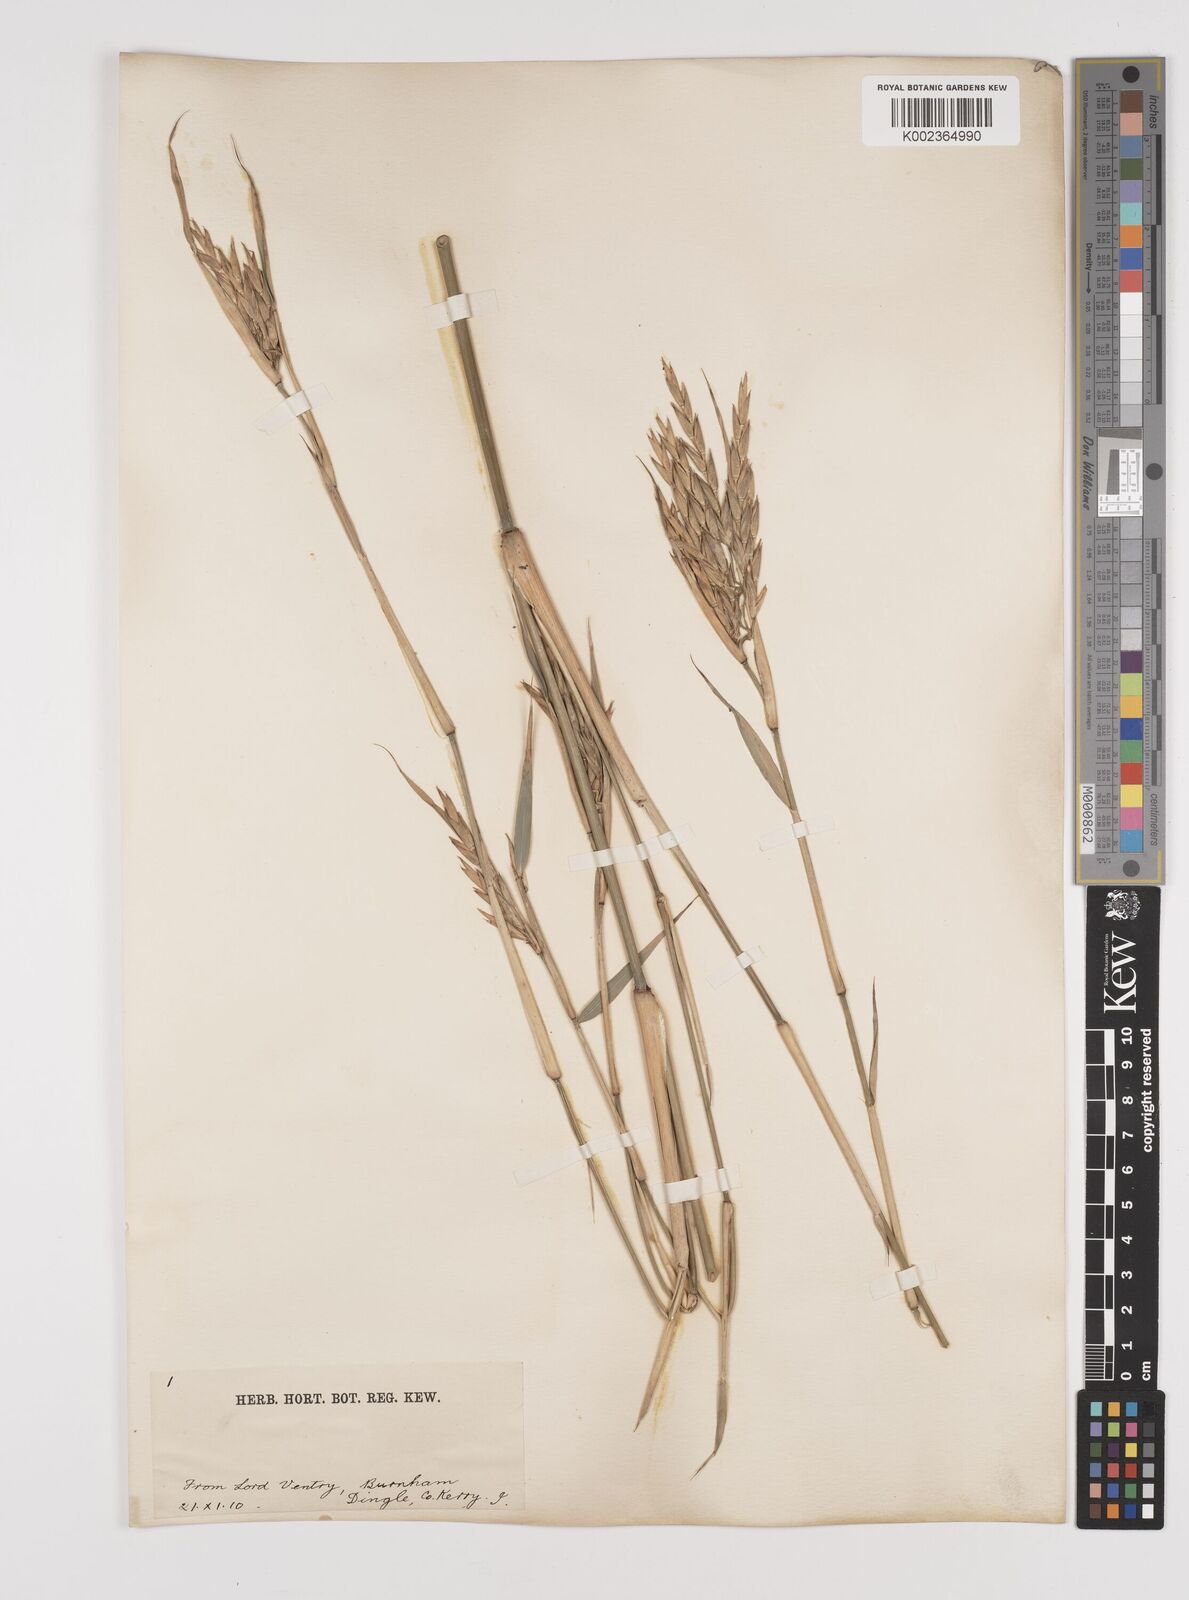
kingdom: Plantae
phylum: Tracheophyta
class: Liliopsida
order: Poales
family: Poaceae
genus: Pleioblastus
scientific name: Pleioblastus gramineus
